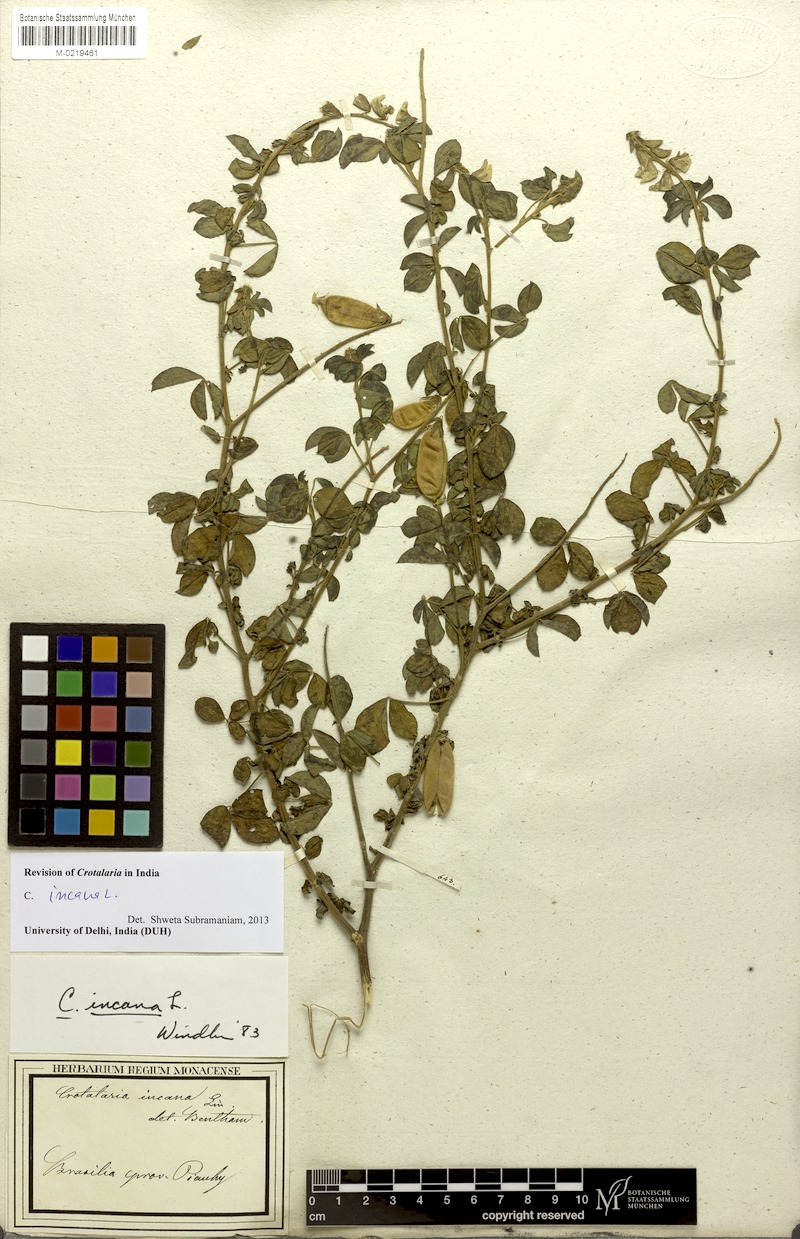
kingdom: Plantae
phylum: Tracheophyta
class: Magnoliopsida
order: Fabales
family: Fabaceae
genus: Crotalaria
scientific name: Crotalaria incana
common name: Shakeshake
